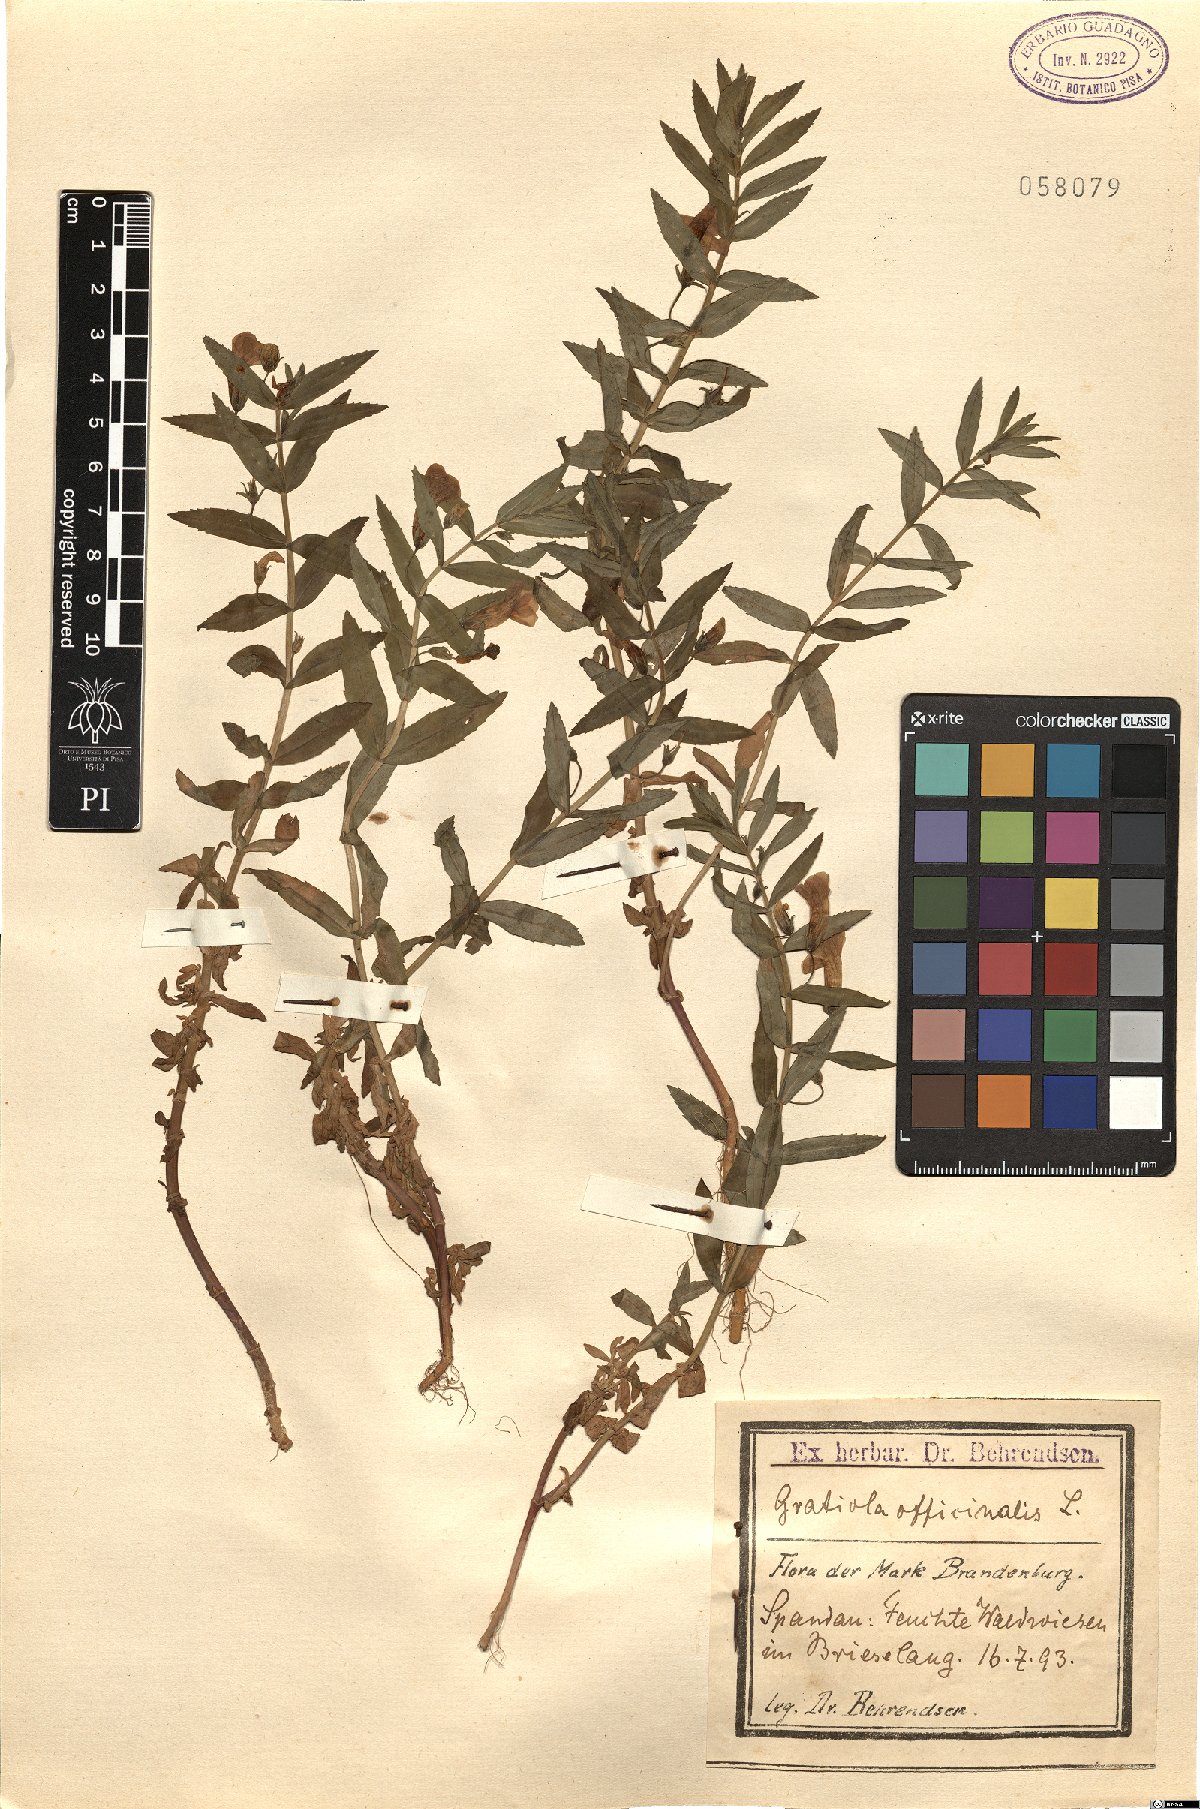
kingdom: Plantae
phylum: Tracheophyta
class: Magnoliopsida
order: Lamiales
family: Plantaginaceae
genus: Gratiola
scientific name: Gratiola officinalis
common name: Gratiola
